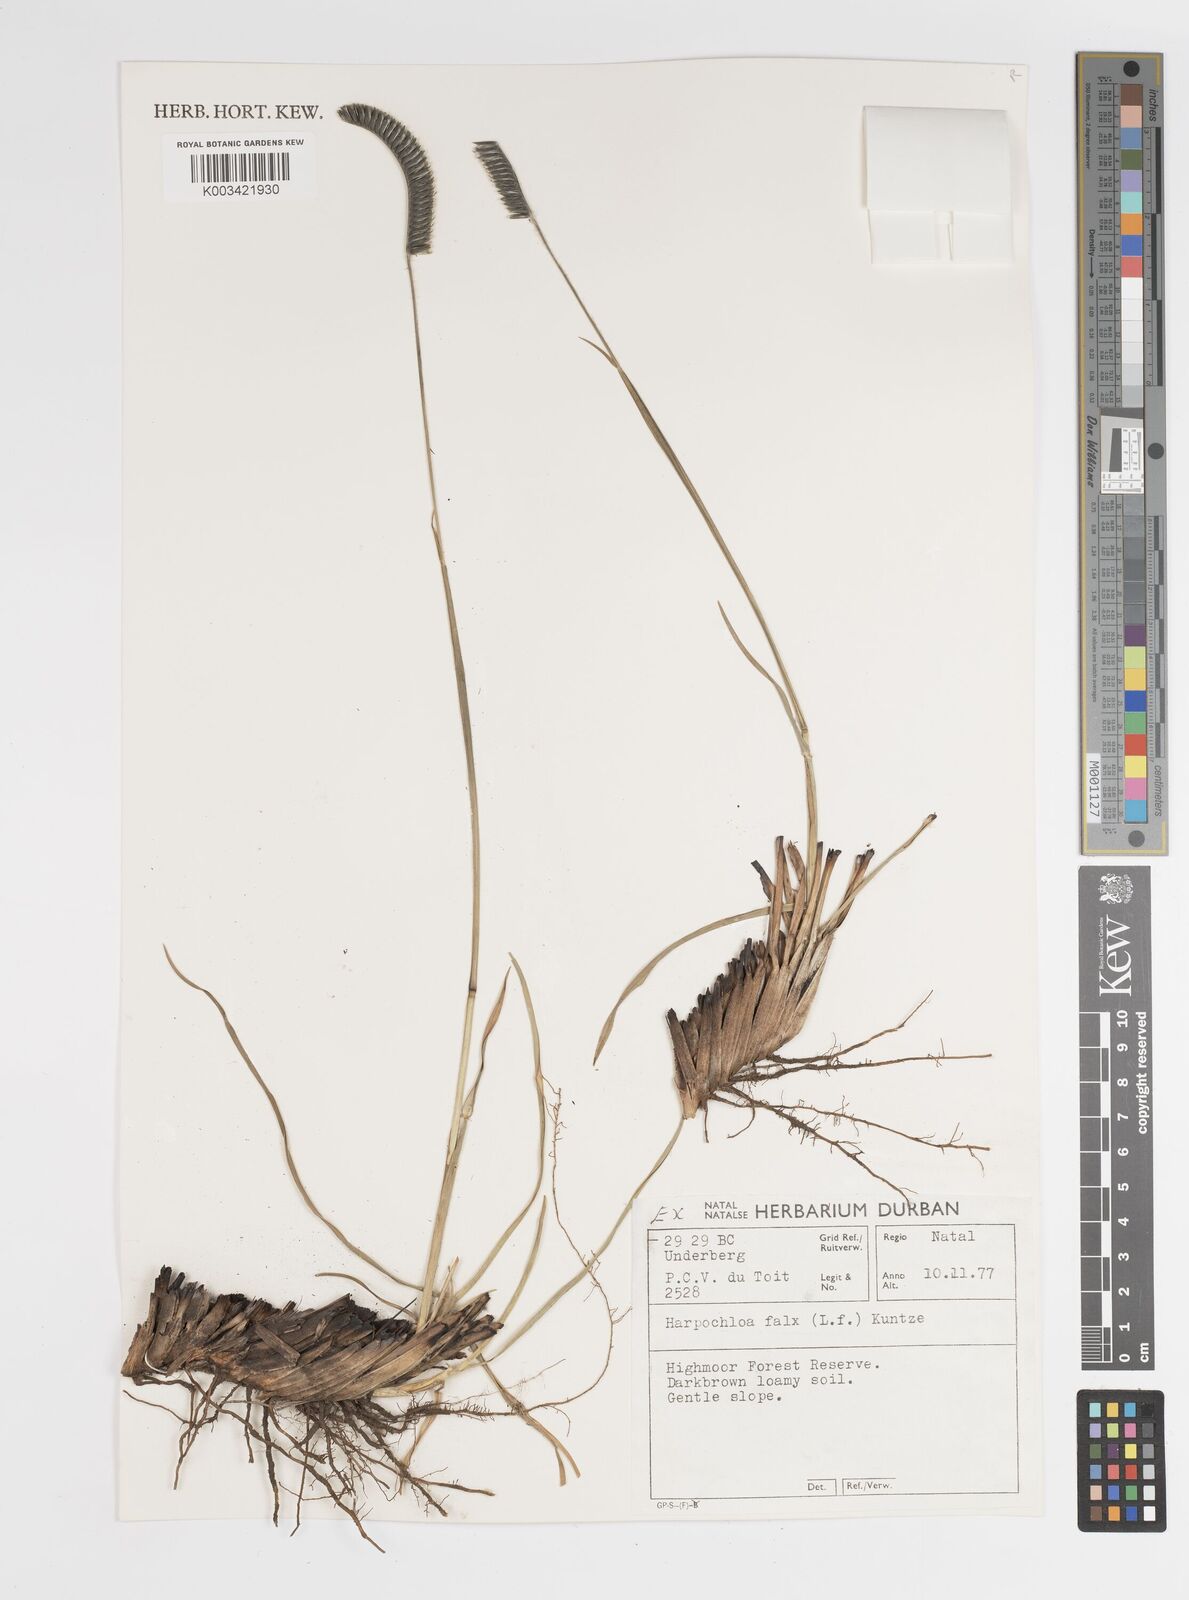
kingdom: Plantae
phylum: Tracheophyta
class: Liliopsida
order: Poales
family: Poaceae
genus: Harpochloa
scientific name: Harpochloa falx
